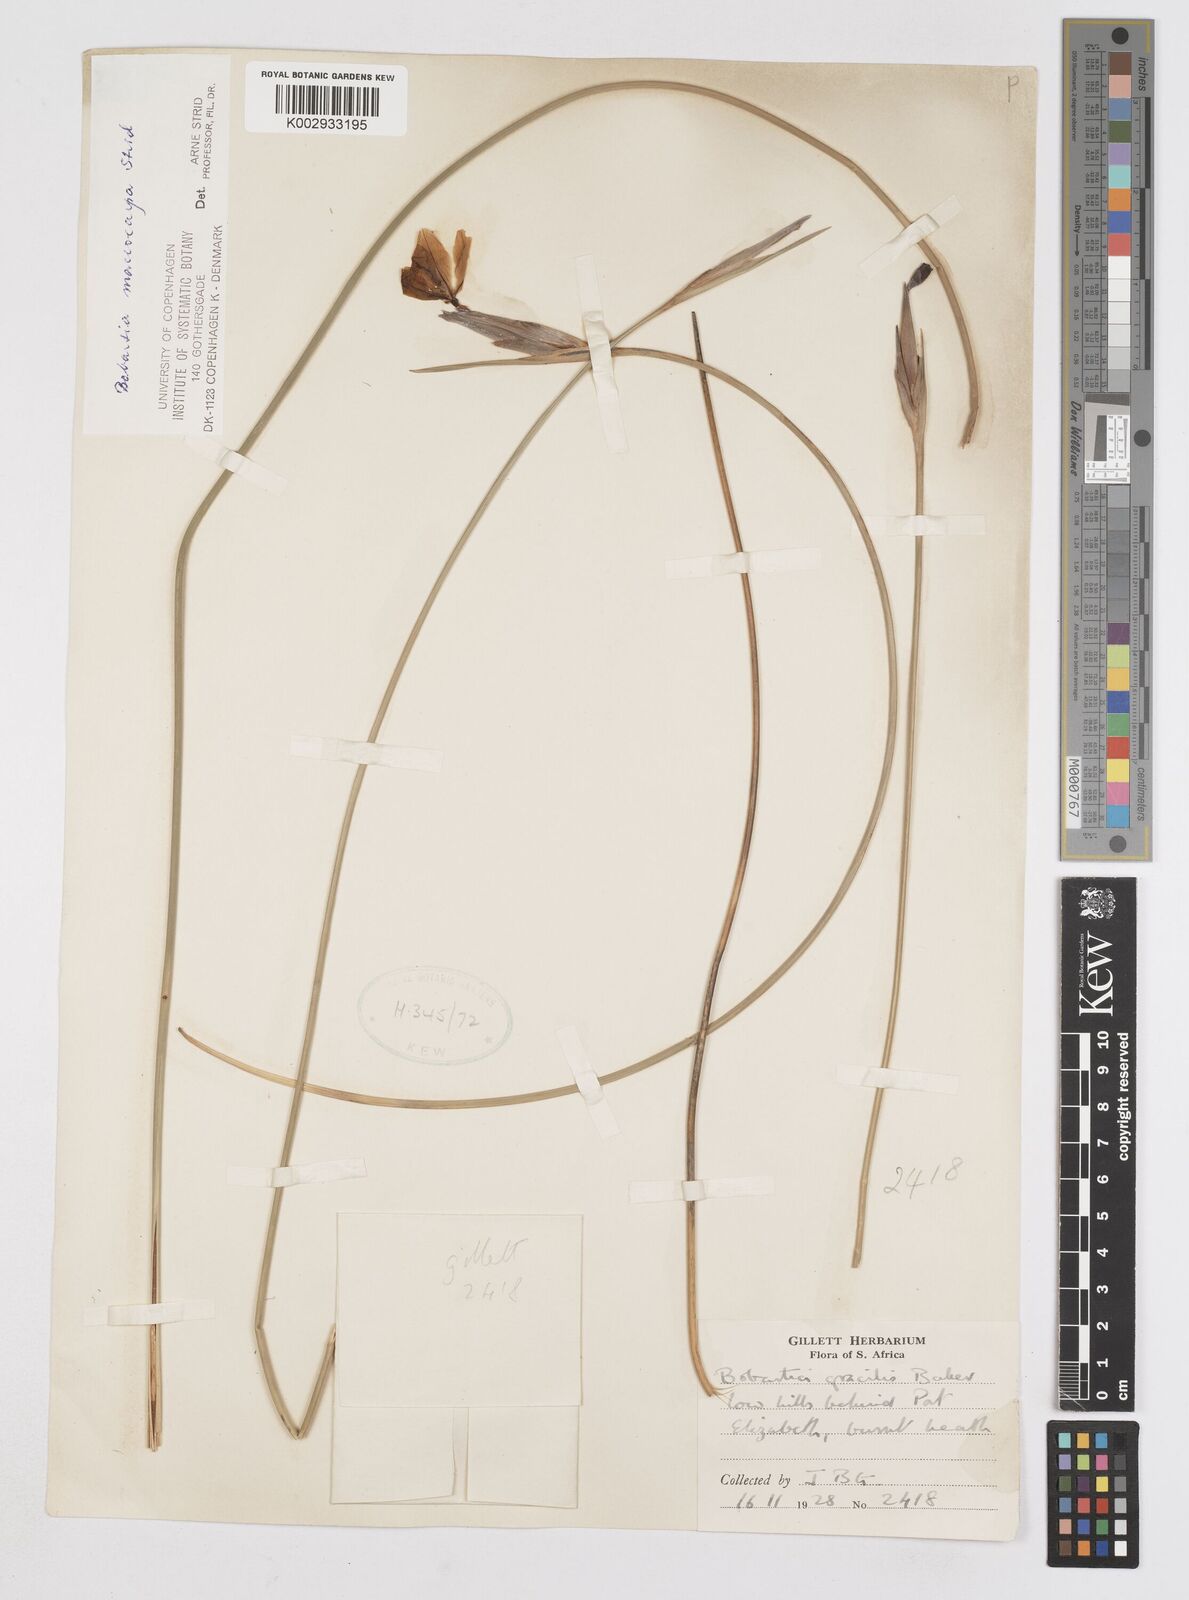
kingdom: Plantae
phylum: Tracheophyta
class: Liliopsida
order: Asparagales
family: Iridaceae
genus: Bobartia
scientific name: Bobartia macrocarpa
